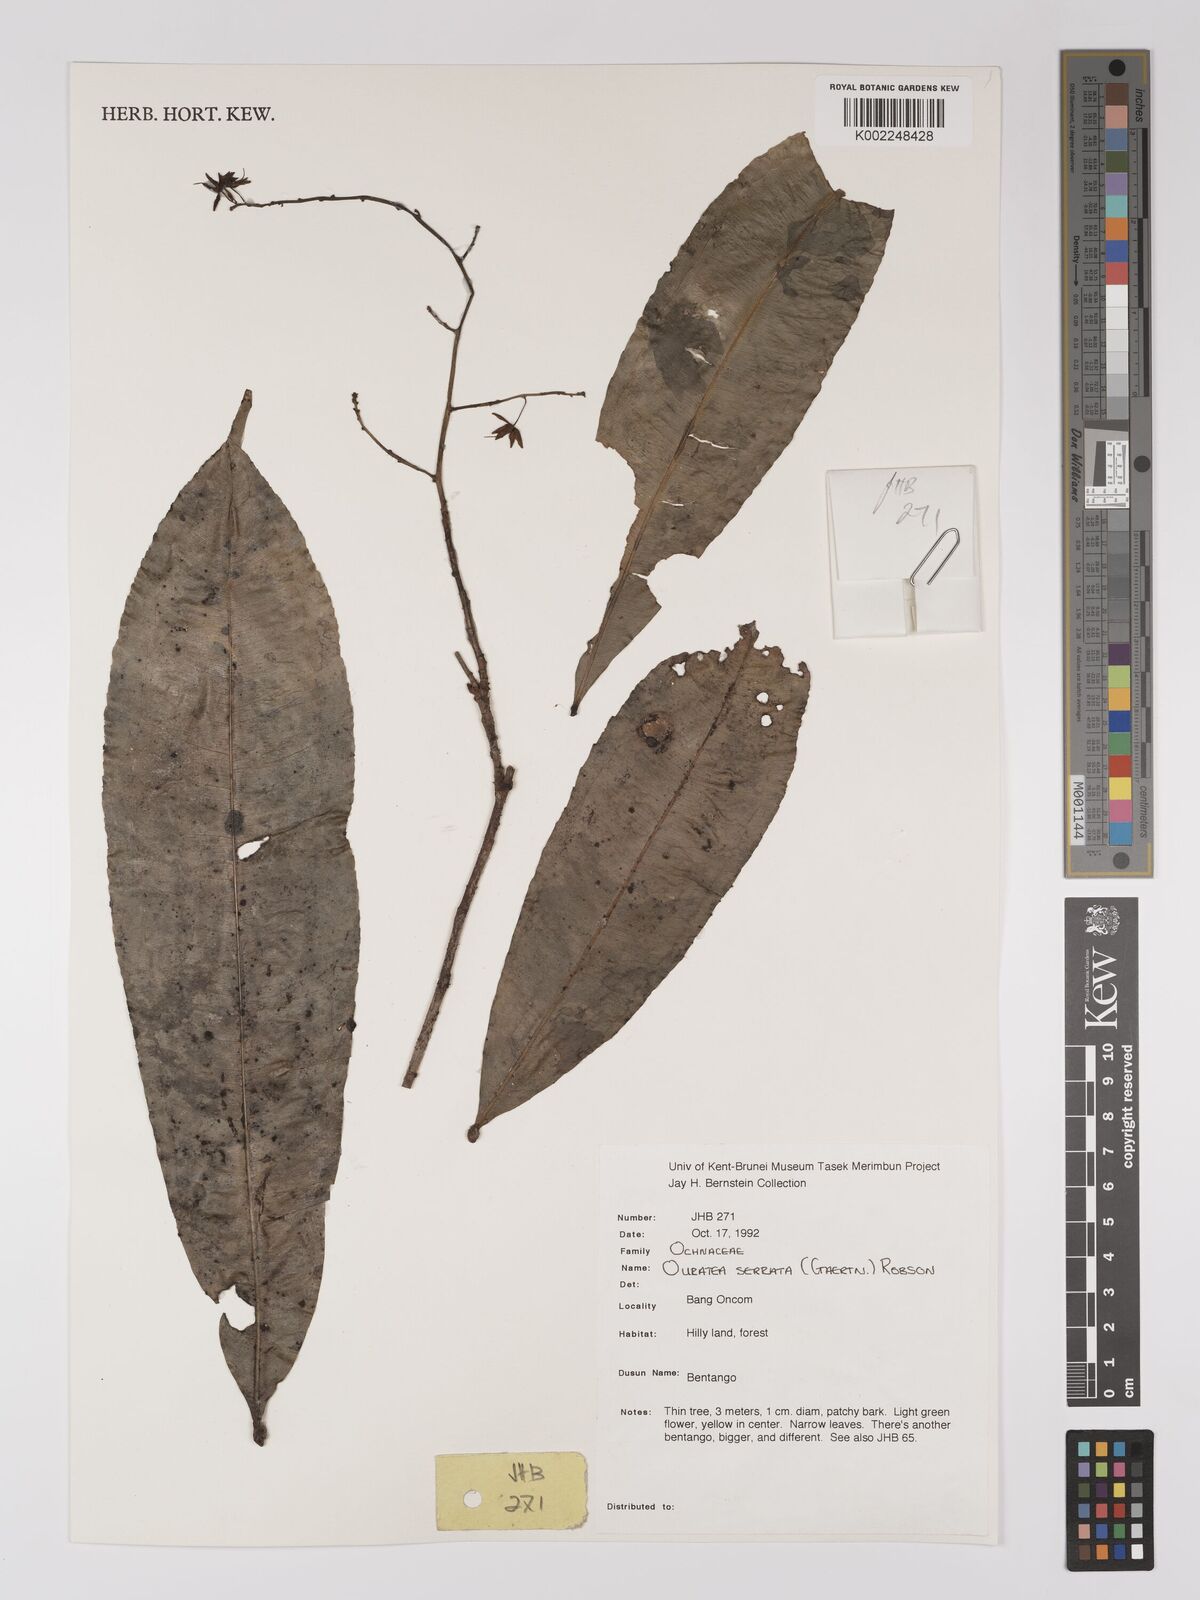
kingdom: Plantae
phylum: Tracheophyta
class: Magnoliopsida
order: Malpighiales
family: Ochnaceae
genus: Gomphia
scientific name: Gomphia serrata
